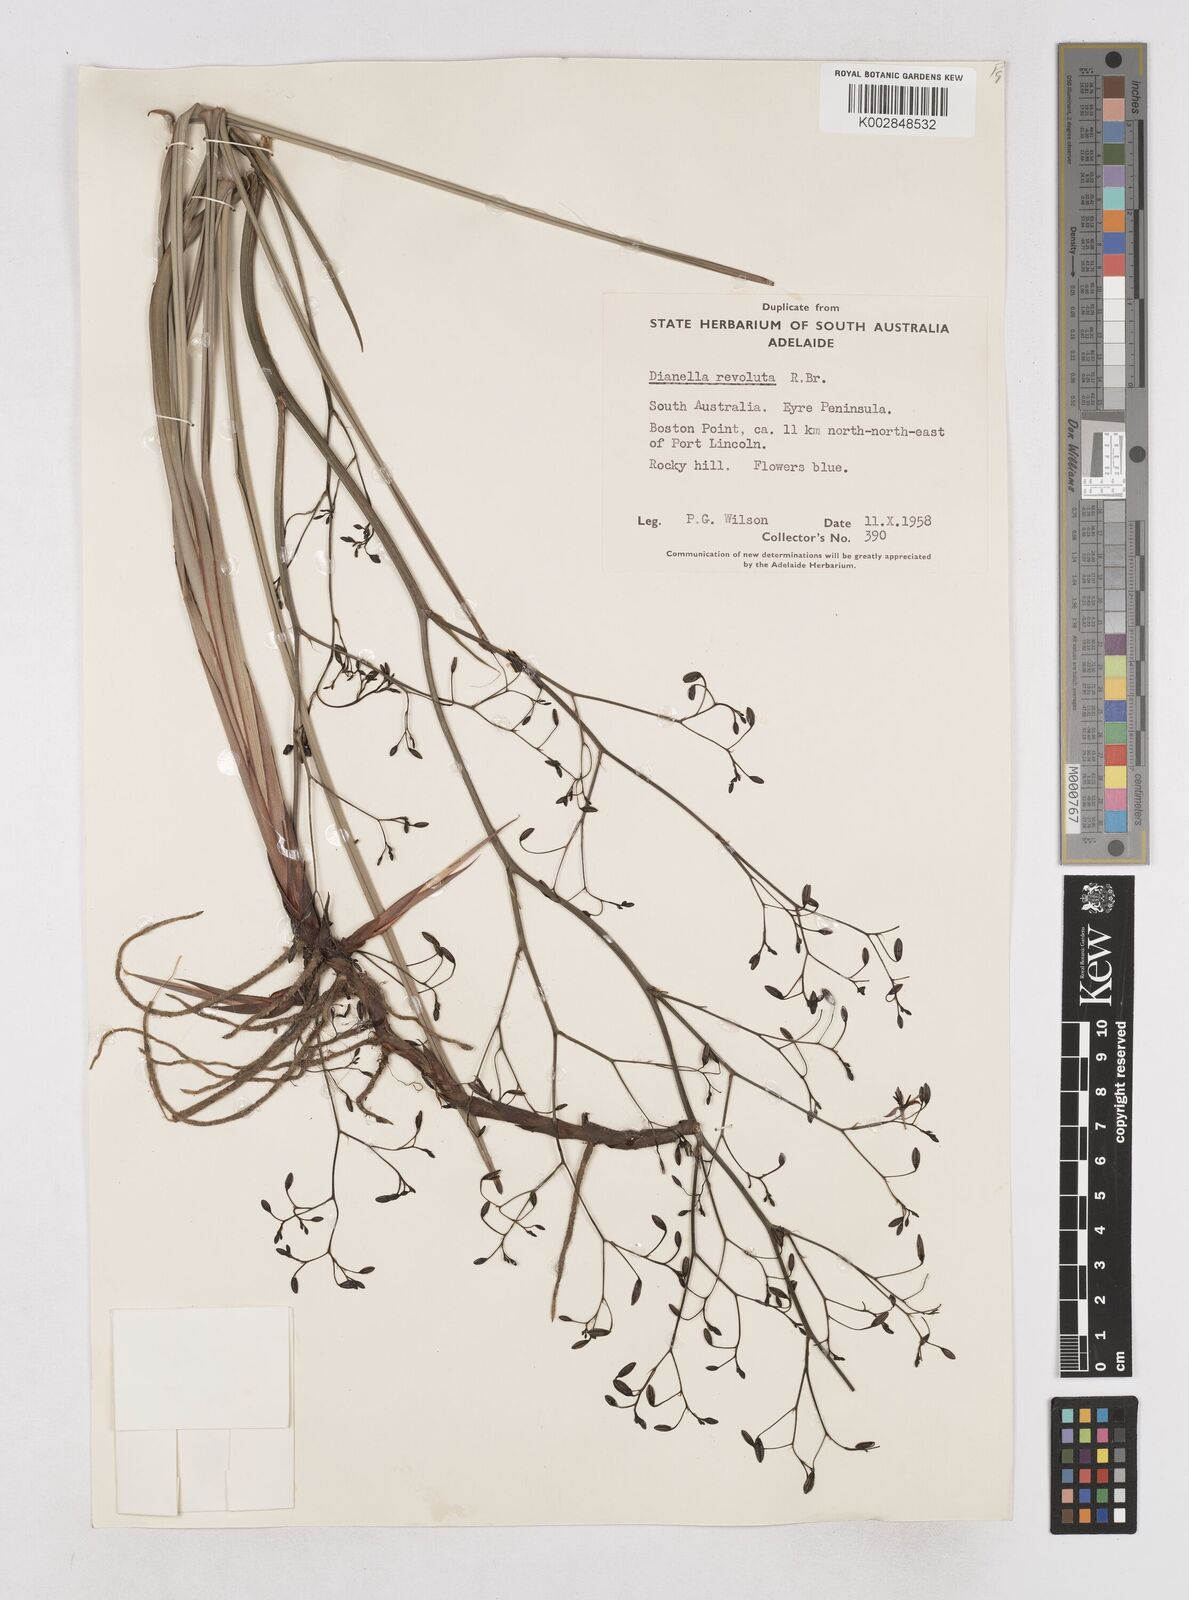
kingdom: Plantae
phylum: Tracheophyta
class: Liliopsida
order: Asparagales
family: Asphodelaceae
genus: Dianella
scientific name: Dianella revoluta
